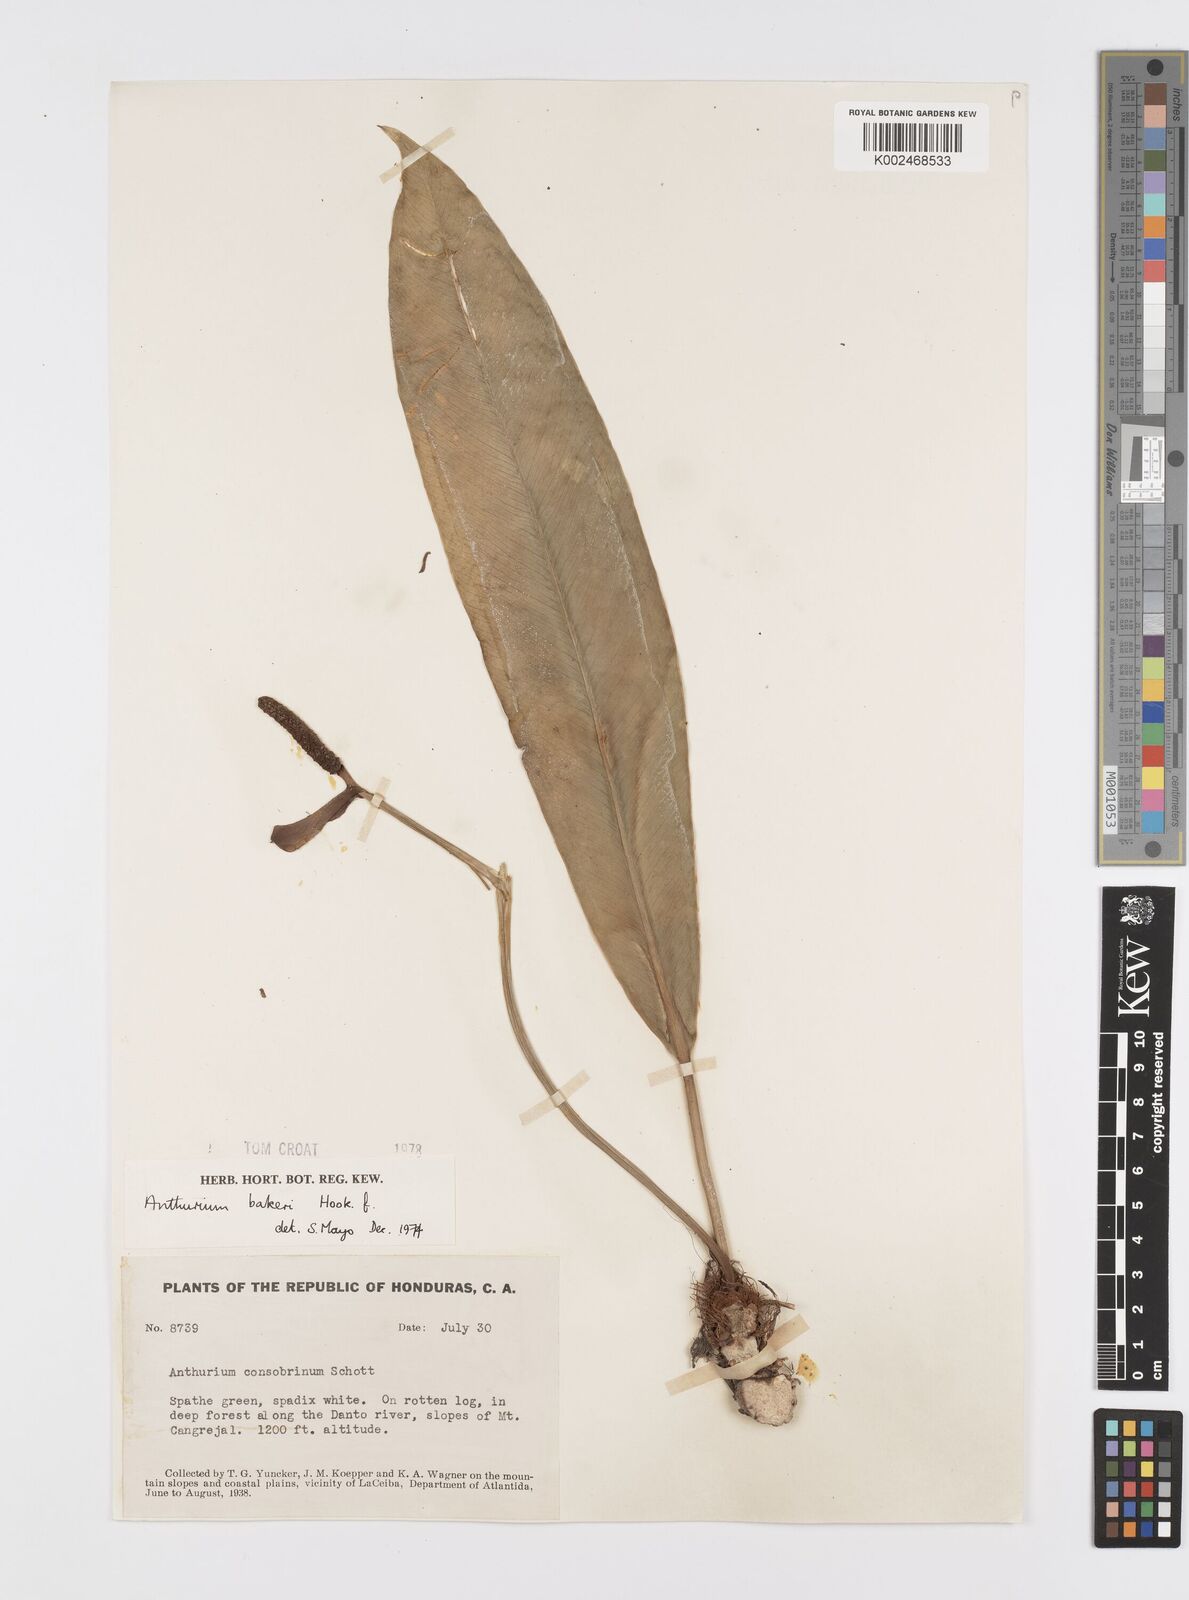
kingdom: Plantae
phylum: Tracheophyta
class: Liliopsida
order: Alismatales
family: Araceae
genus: Anthurium
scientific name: Anthurium bakeri
